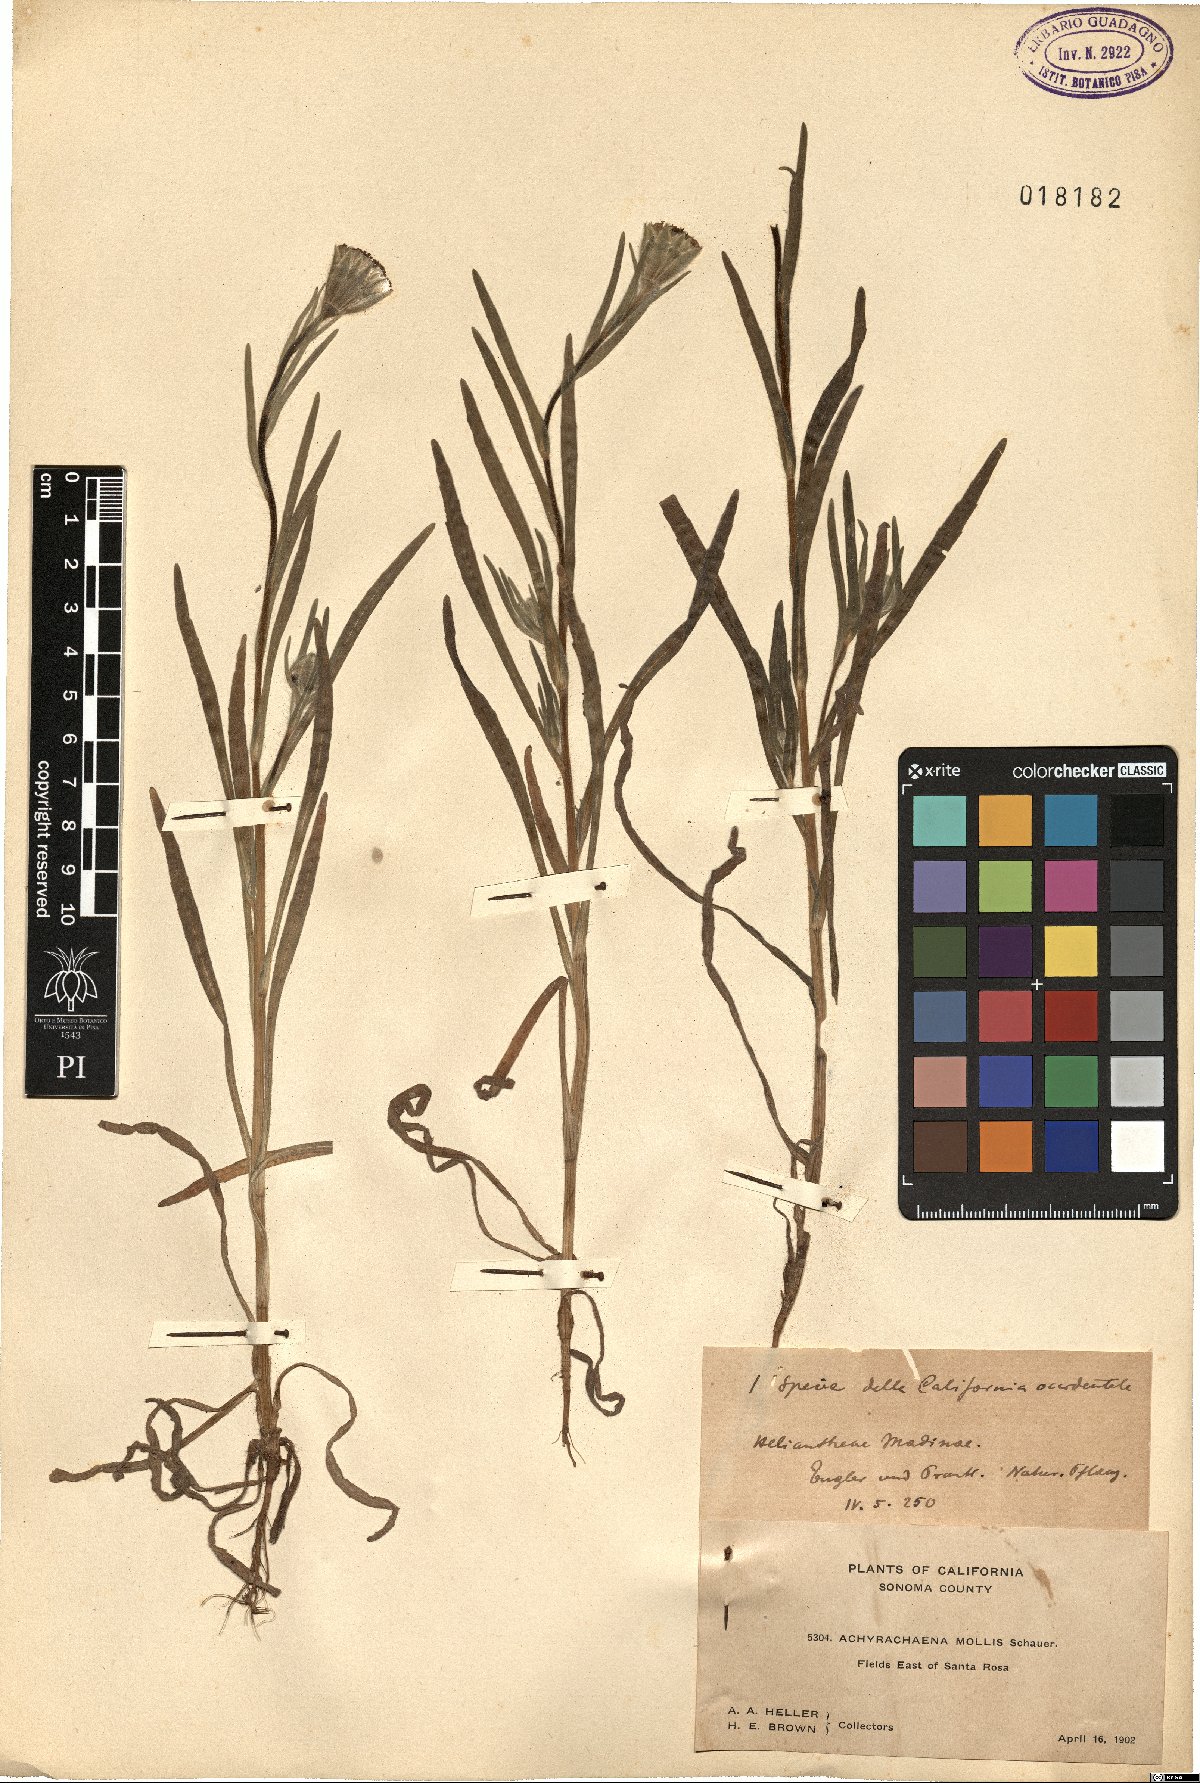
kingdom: Plantae
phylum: Tracheophyta
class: Magnoliopsida
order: Asterales
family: Asteraceae
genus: Achyrachaena
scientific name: Achyrachaena mollis
